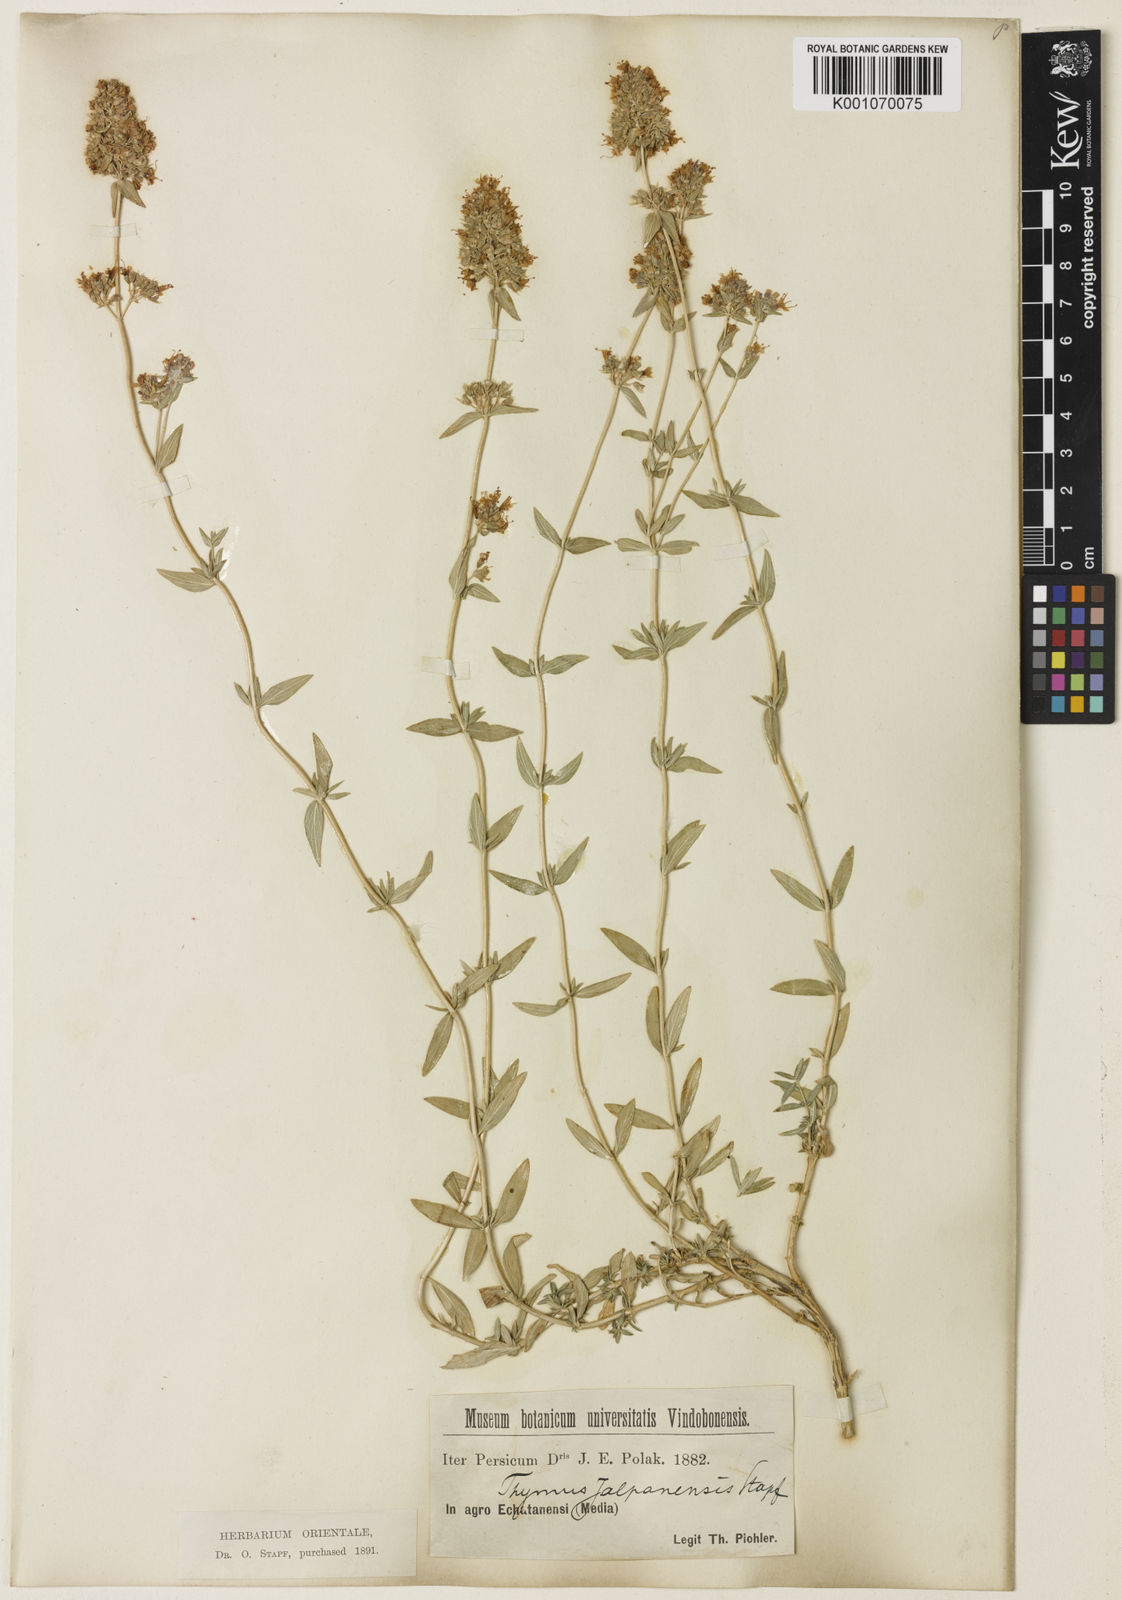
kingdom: Plantae
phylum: Tracheophyta
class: Magnoliopsida
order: Lamiales
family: Lamiaceae
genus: Thymus
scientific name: Thymus daenensis
